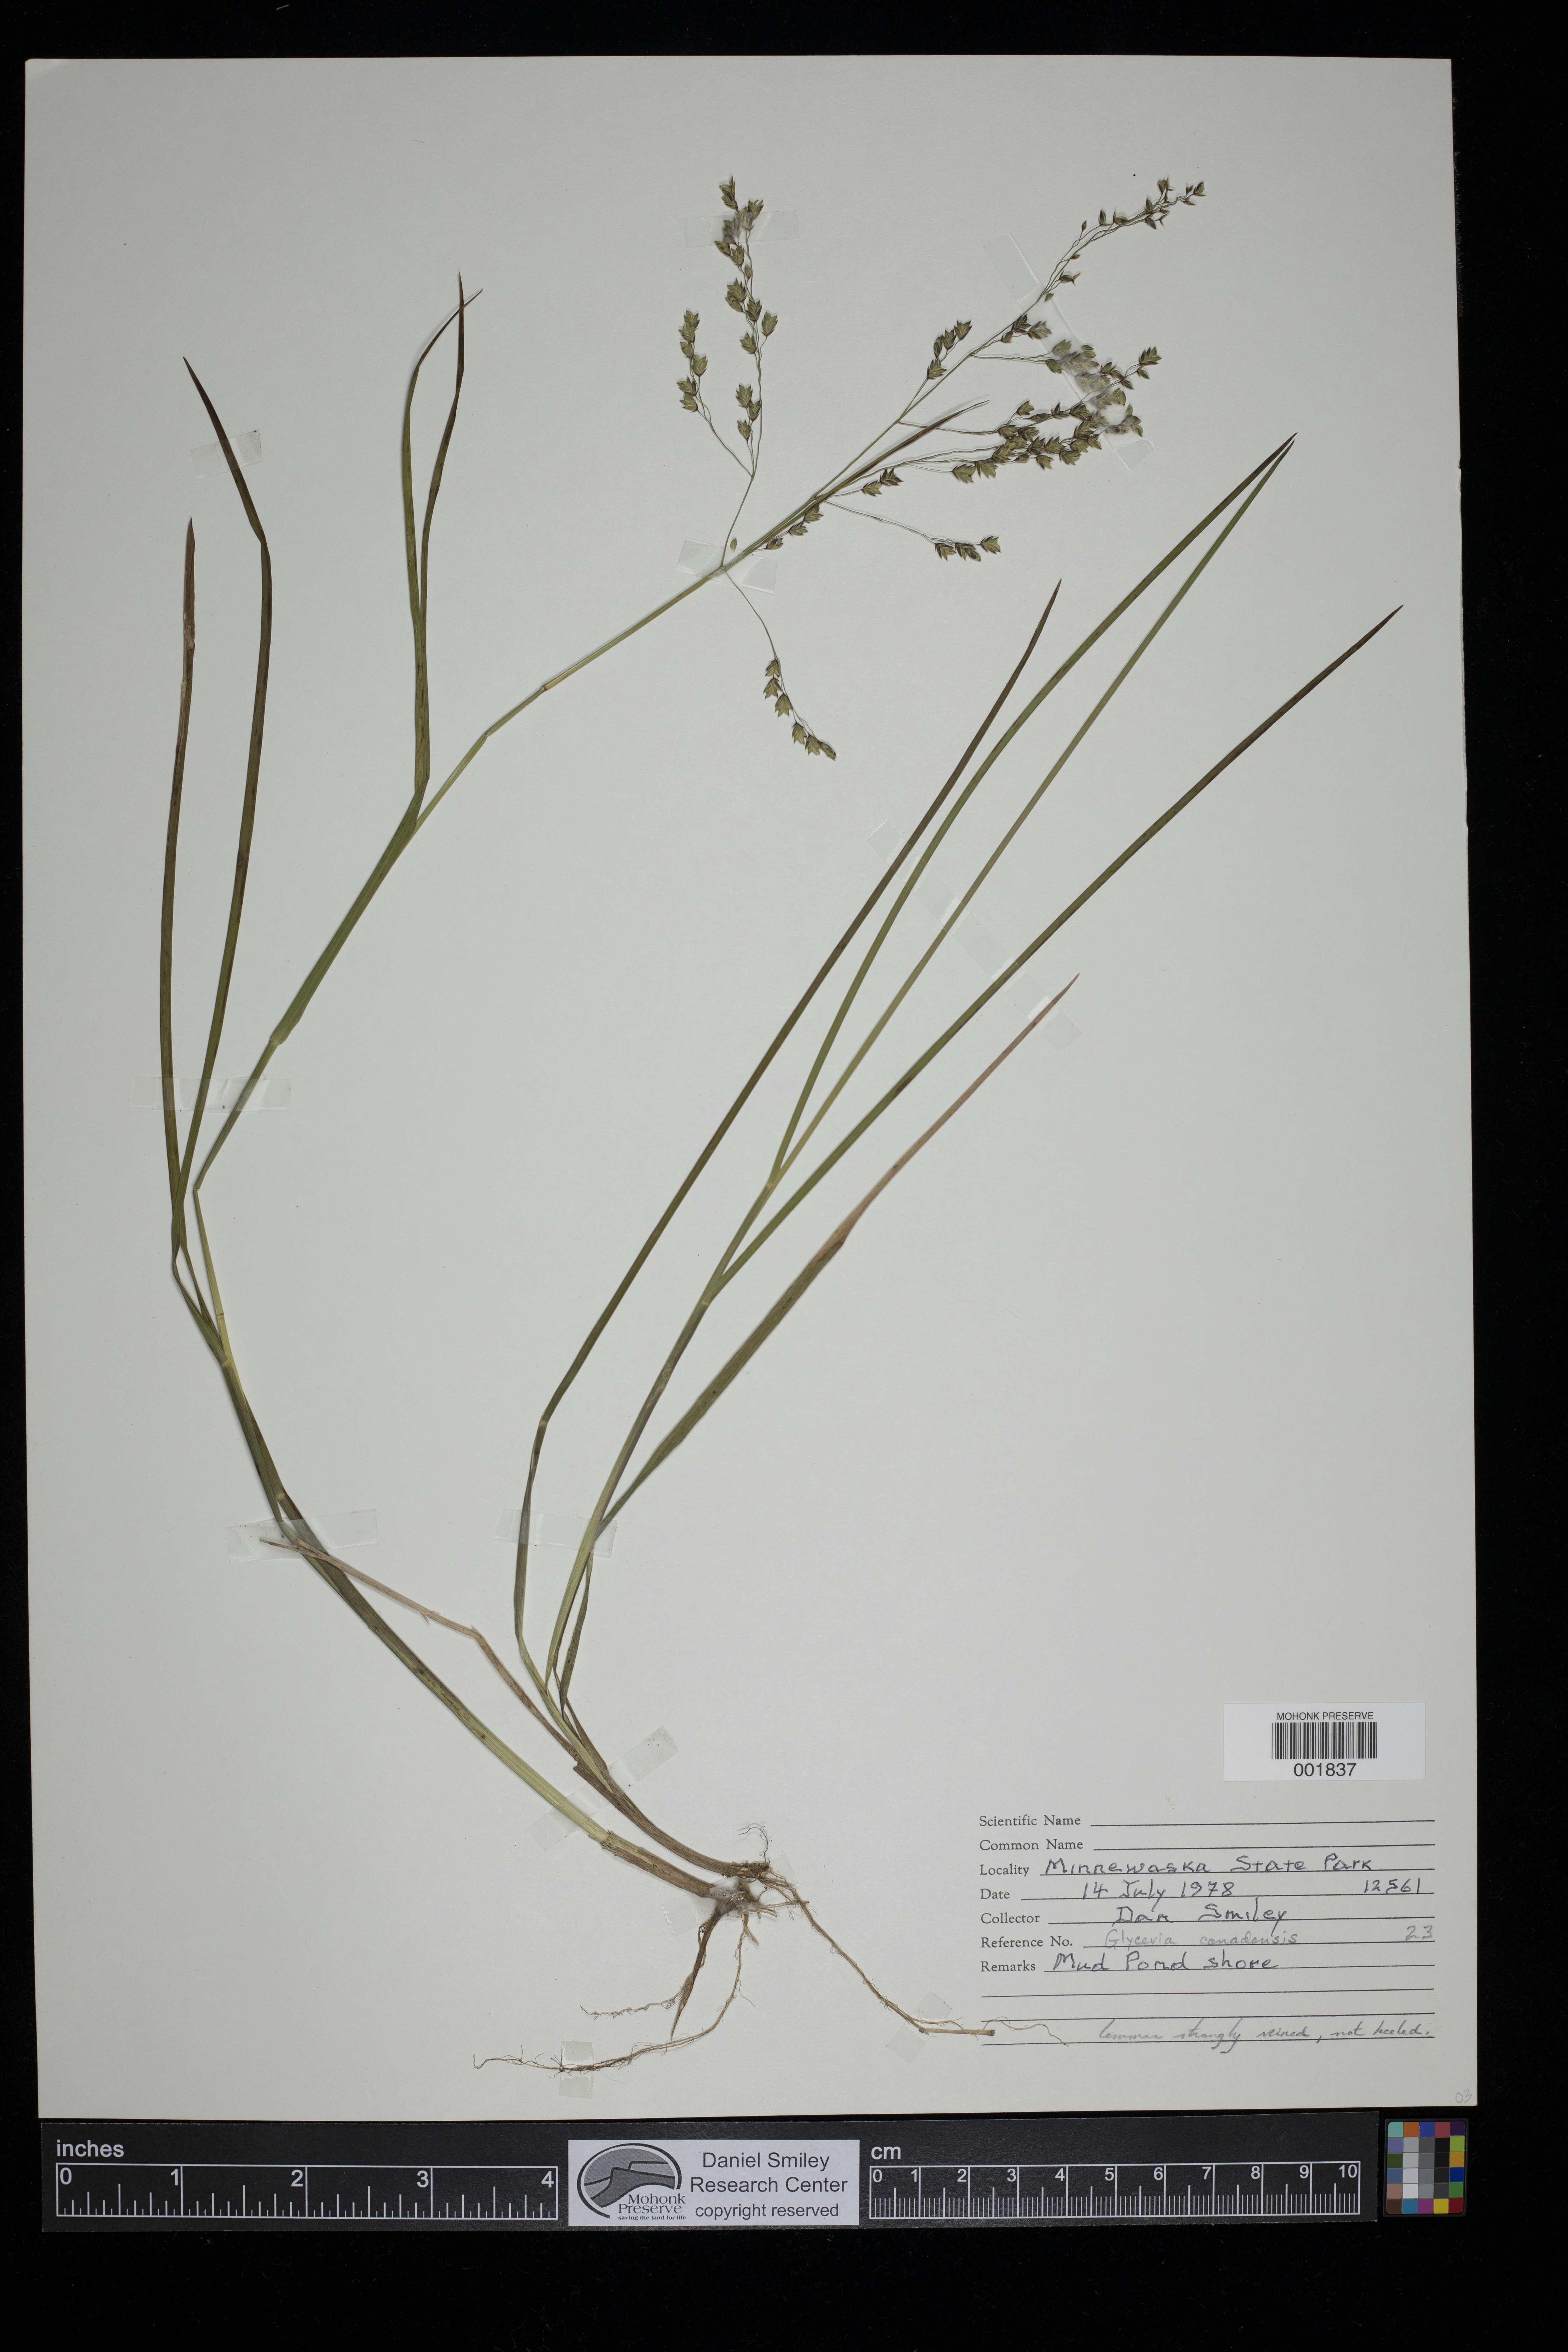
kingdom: Plantae
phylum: Tracheophyta
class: Liliopsida
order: Poales
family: Poaceae
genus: Glyceria
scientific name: Glyceria canadensis
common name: Canada mannagrass
